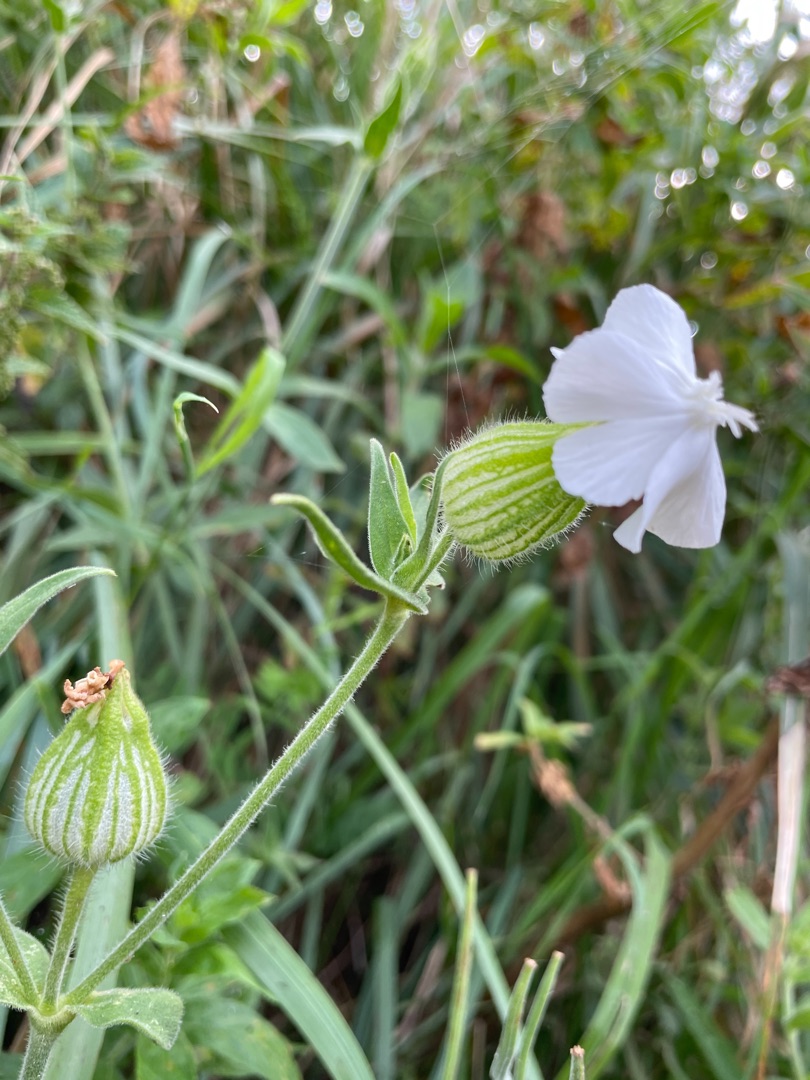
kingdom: Plantae
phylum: Tracheophyta
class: Magnoliopsida
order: Caryophyllales
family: Caryophyllaceae
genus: Silene
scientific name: Silene latifolia
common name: Aftenpragtstjerne
